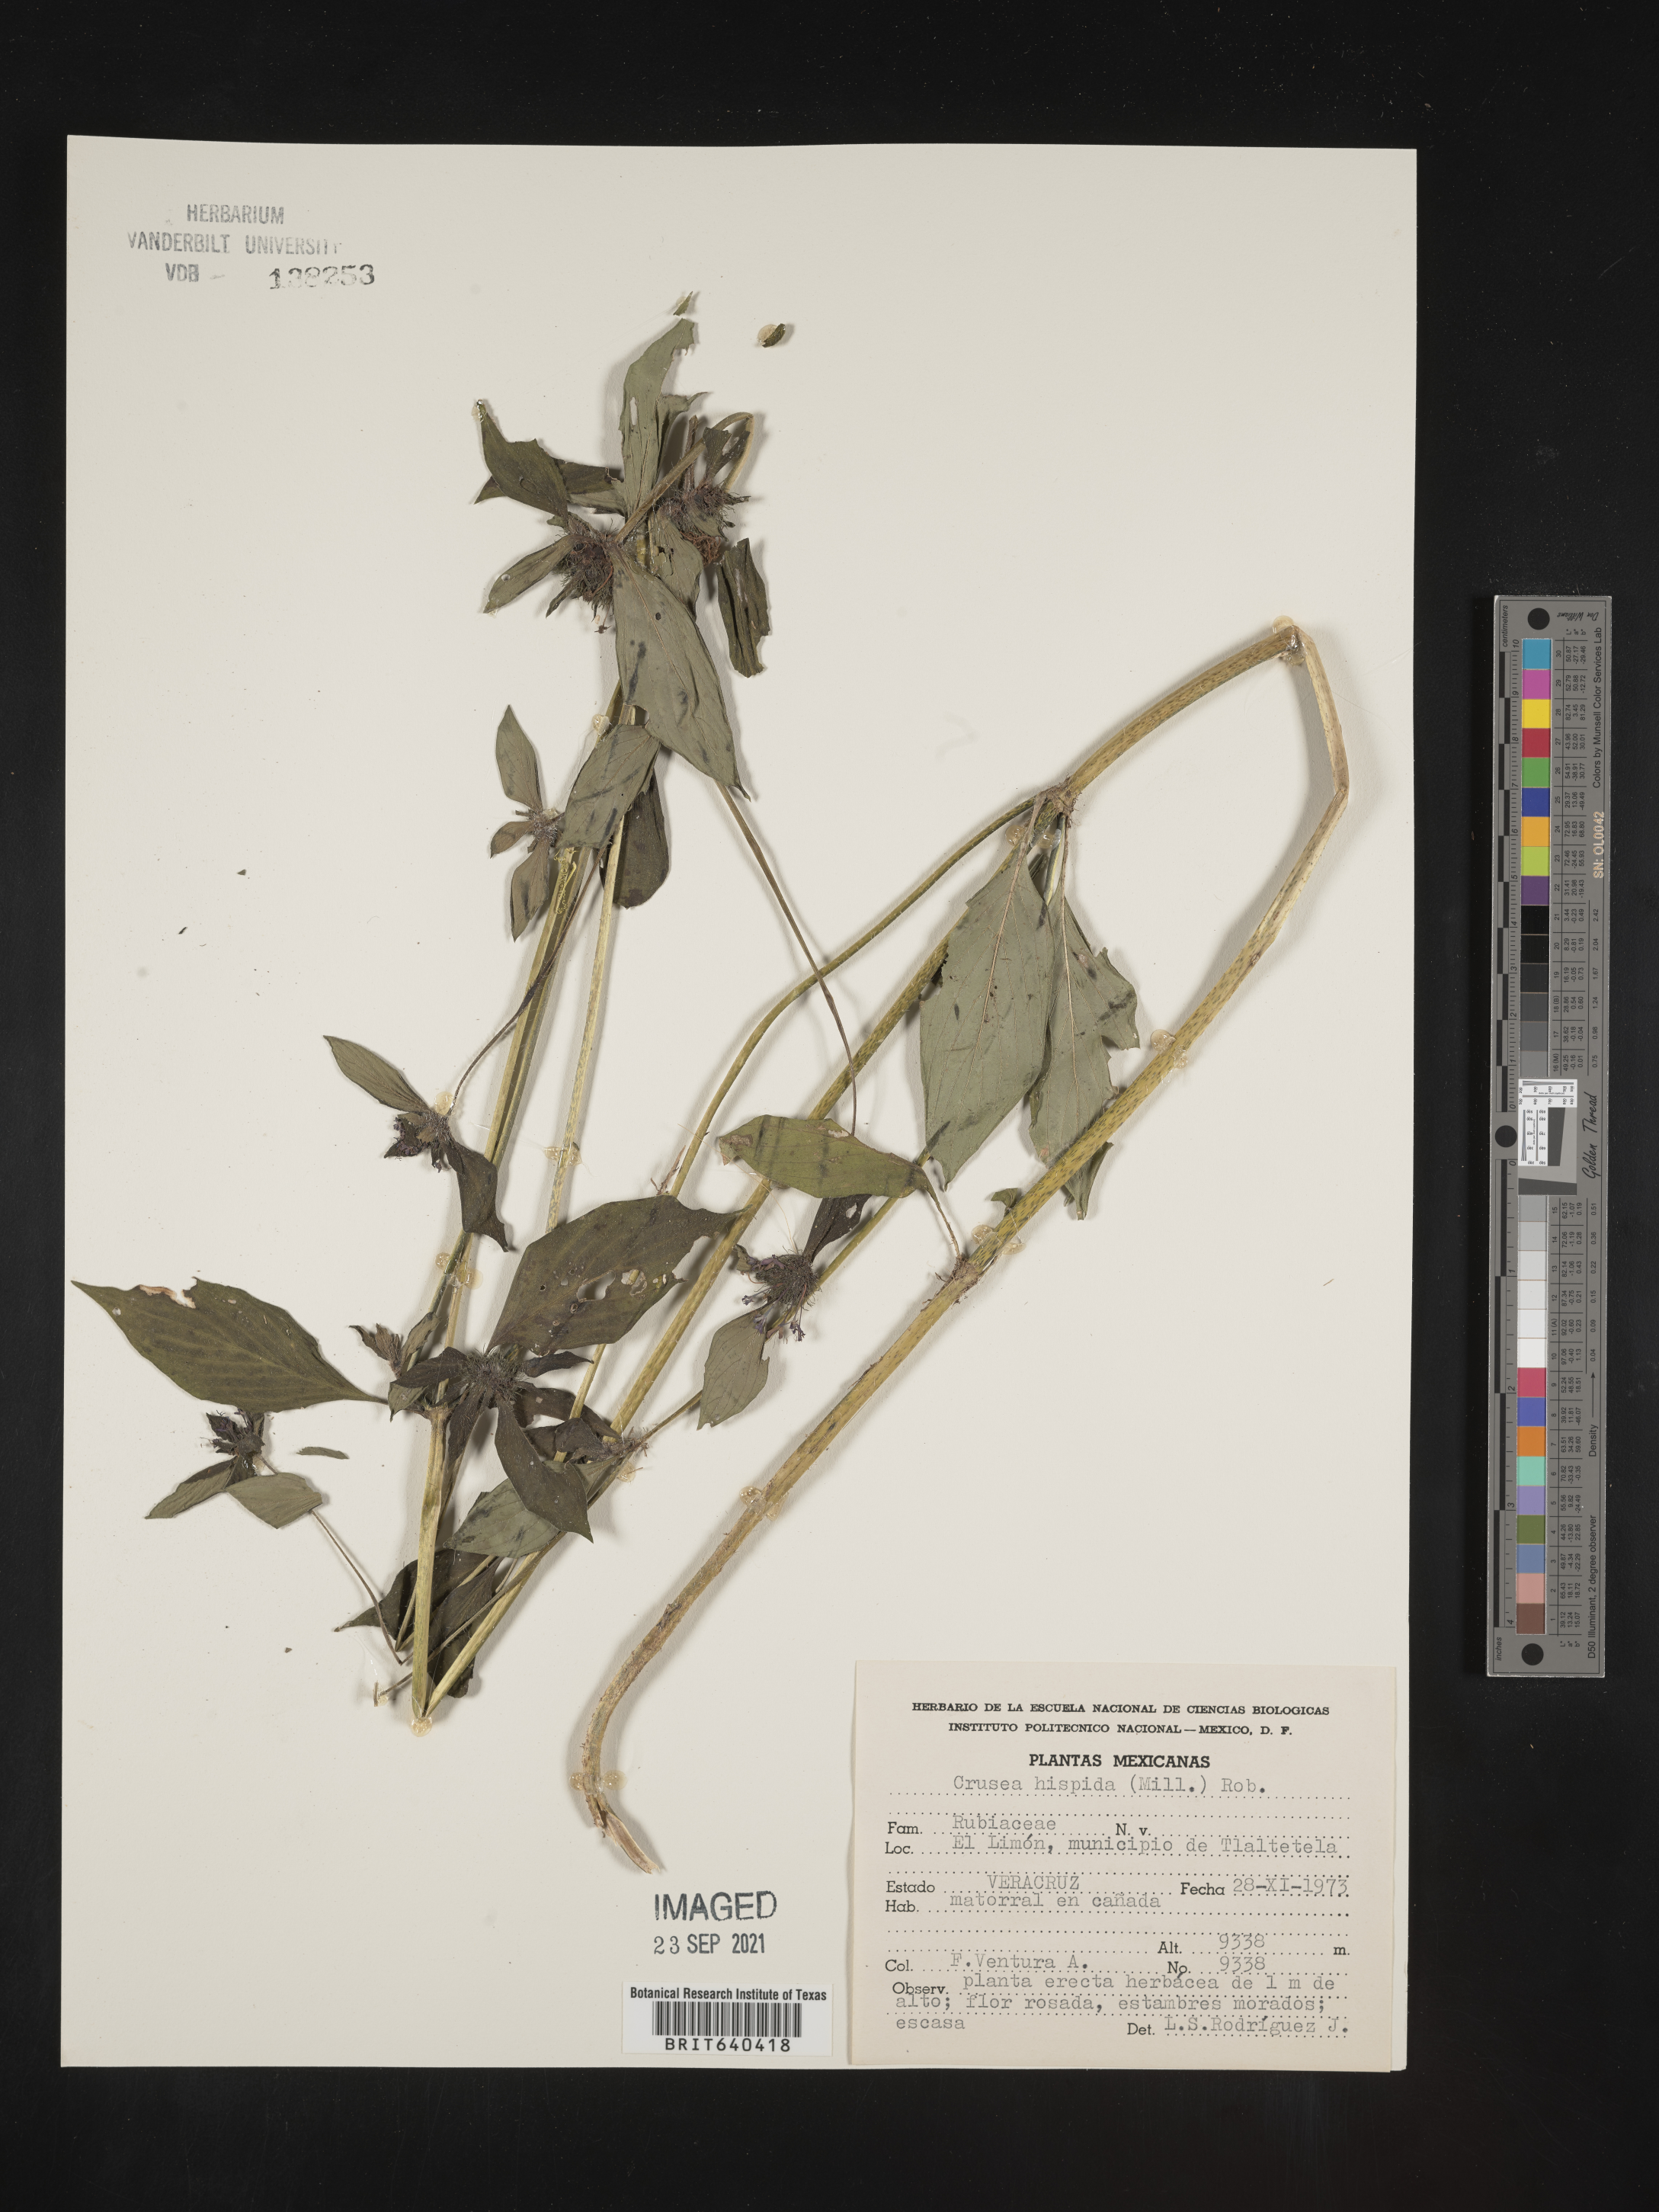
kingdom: Plantae
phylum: Tracheophyta
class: Magnoliopsida
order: Gentianales
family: Rubiaceae
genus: Crusea
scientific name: Crusea
